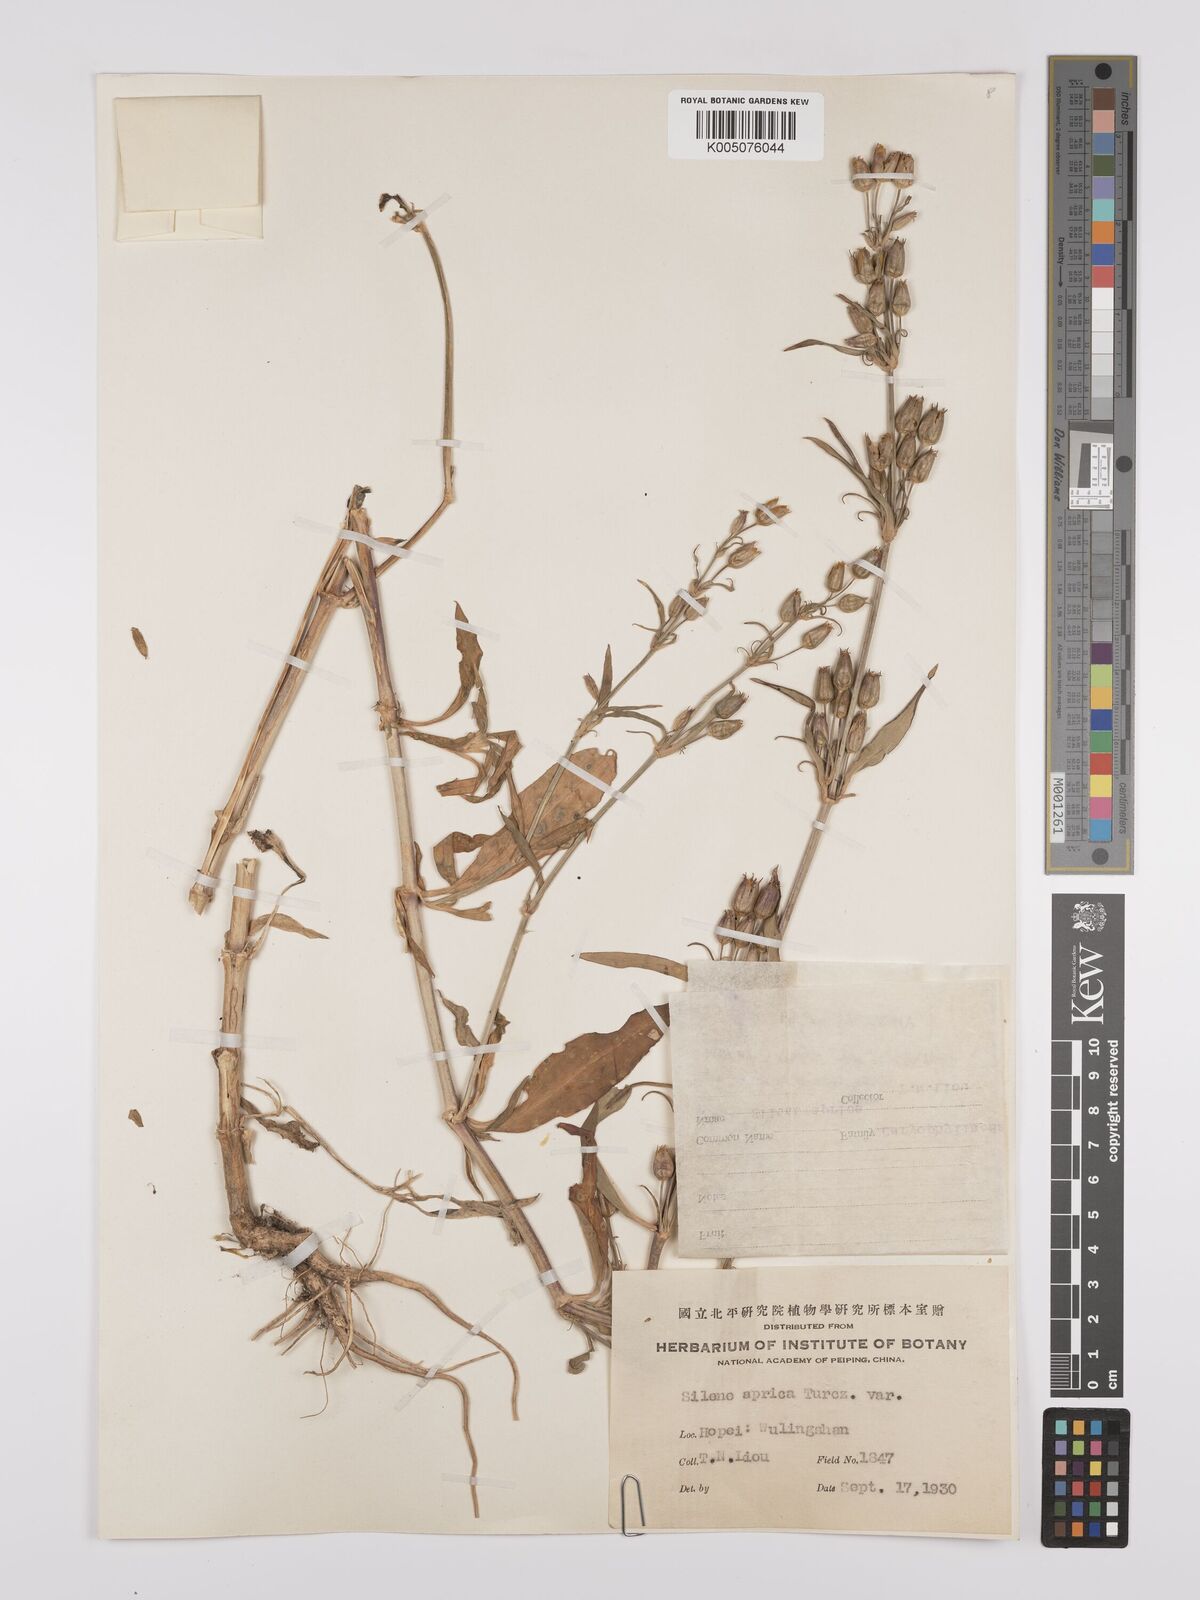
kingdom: Plantae
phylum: Tracheophyta
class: Magnoliopsida
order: Caryophyllales
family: Caryophyllaceae
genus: Silene
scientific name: Silene aprica
